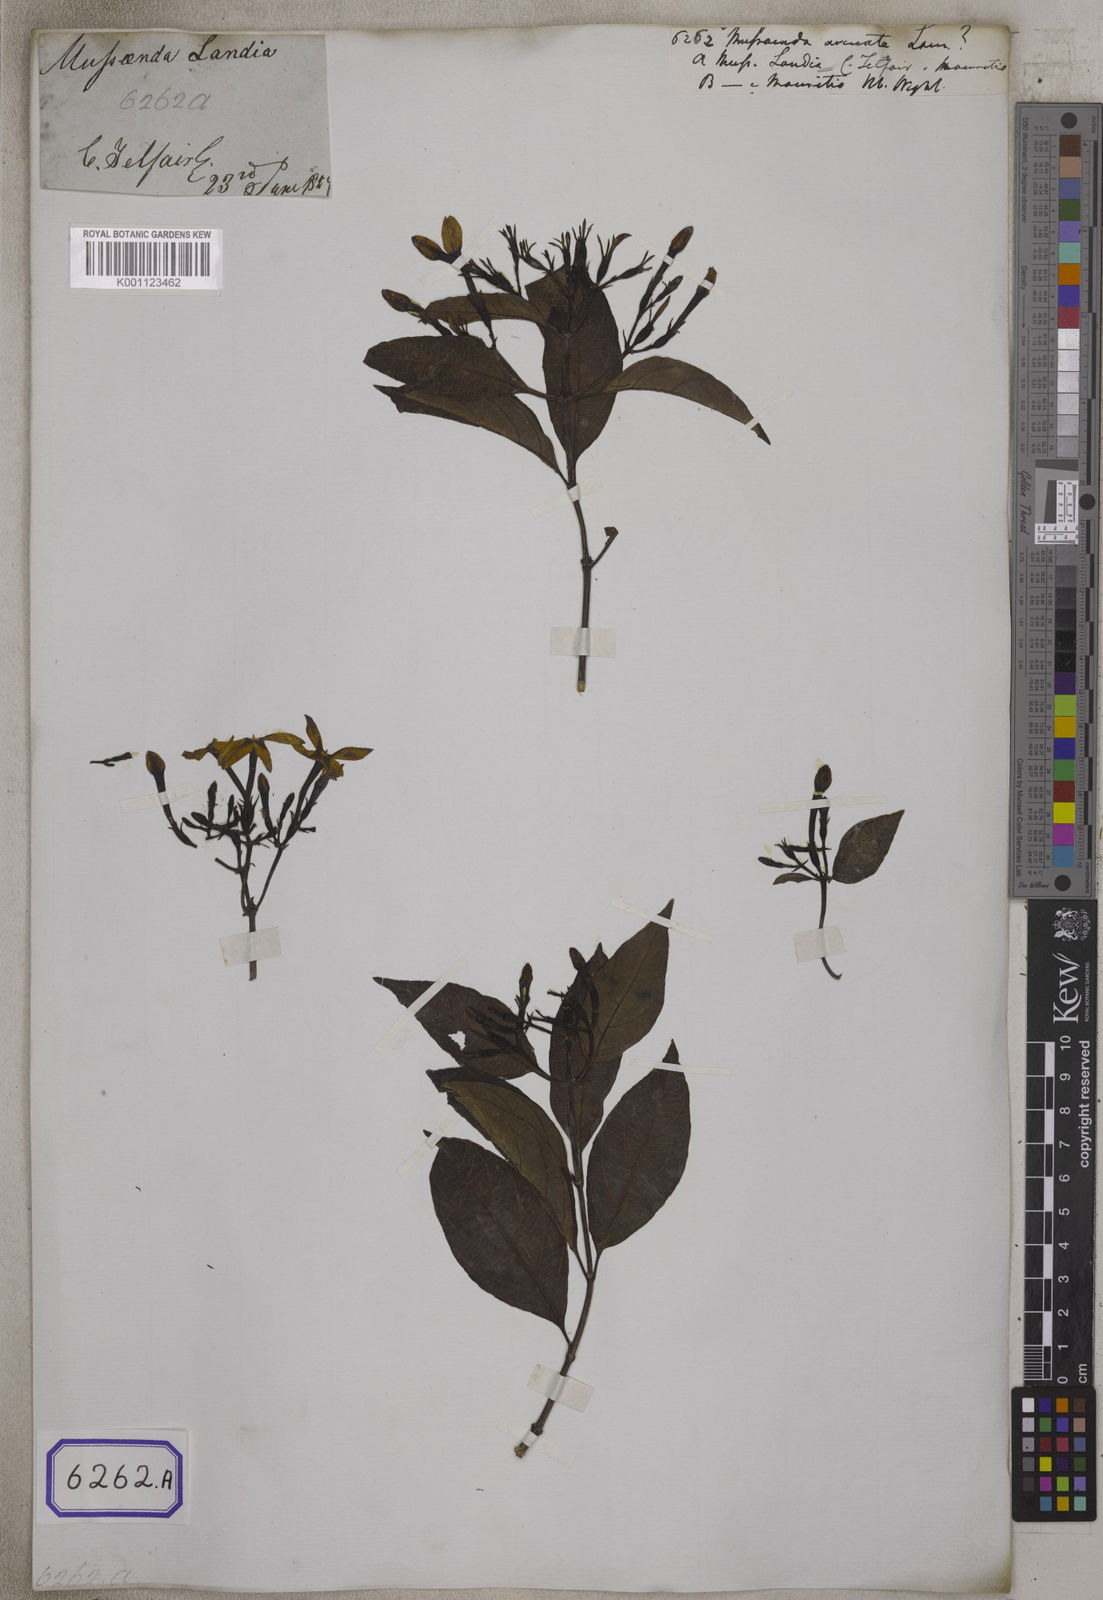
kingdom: Plantae
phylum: Tracheophyta
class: Magnoliopsida
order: Gentianales
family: Rubiaceae
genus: Mussaenda
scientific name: Mussaenda arcuata
